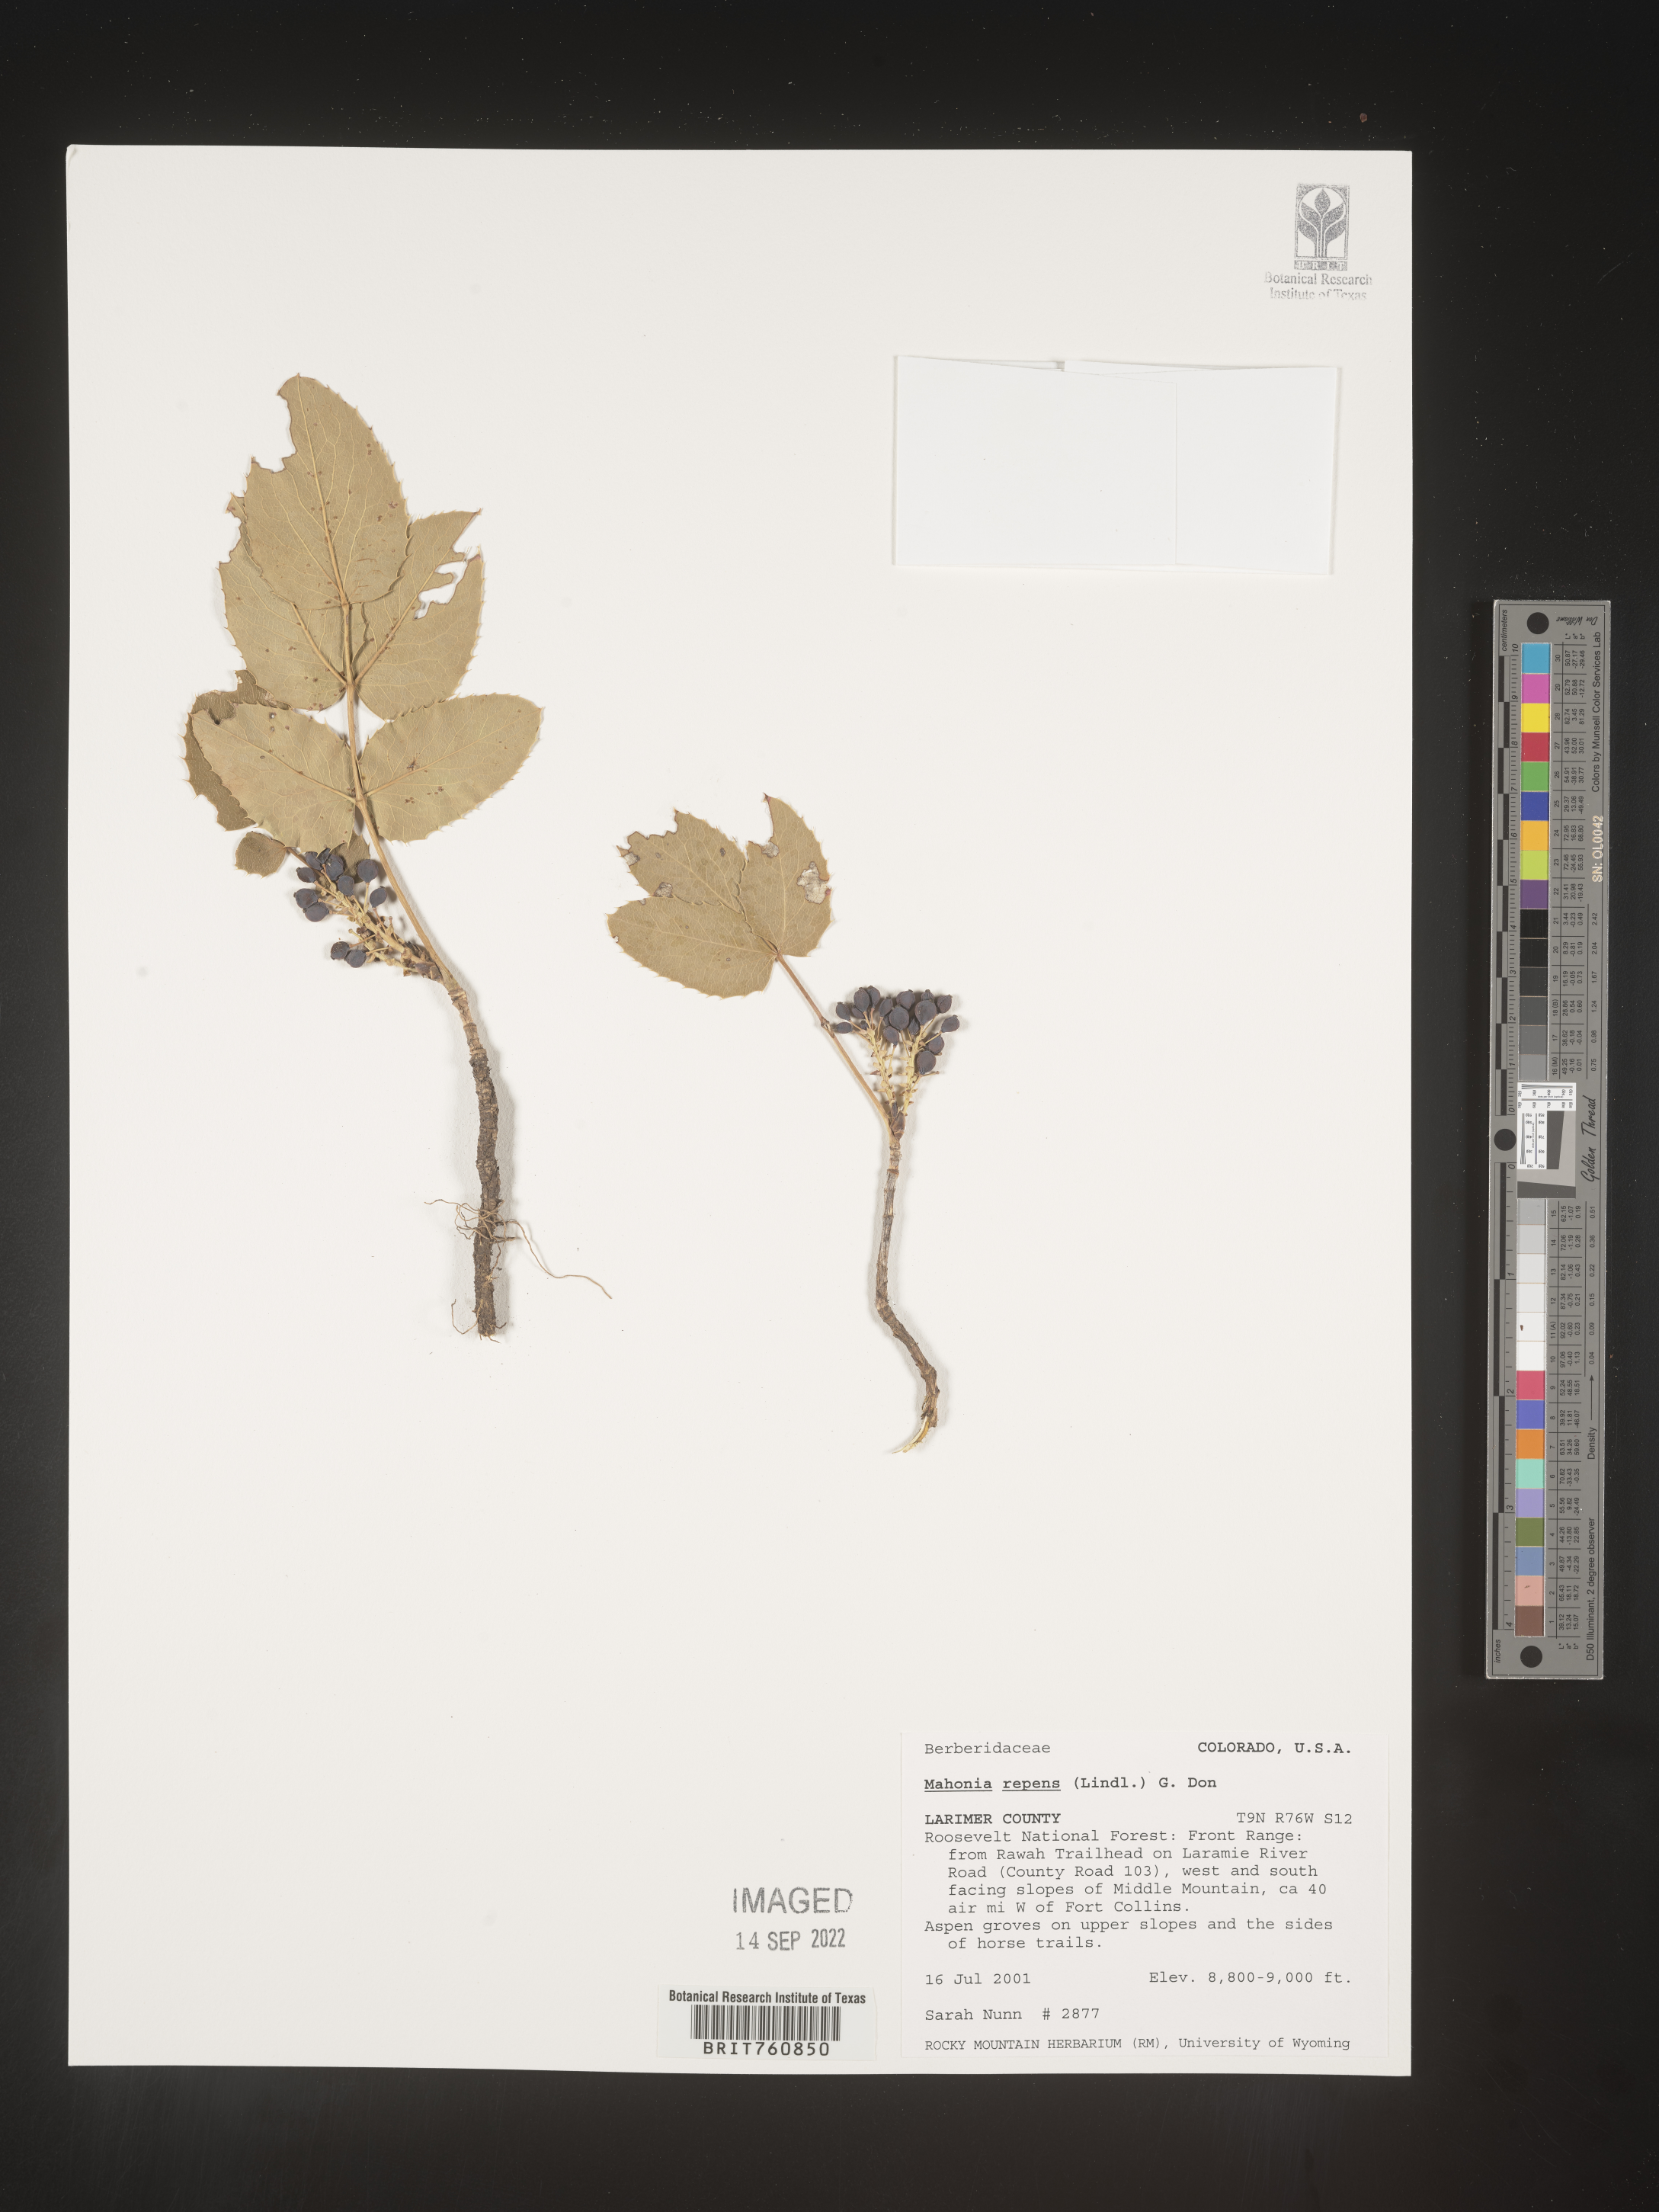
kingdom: Plantae
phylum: Tracheophyta
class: Magnoliopsida
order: Ranunculales
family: Berberidaceae
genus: Mahonia
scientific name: Mahonia repens
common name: Creeping oregon-grape
